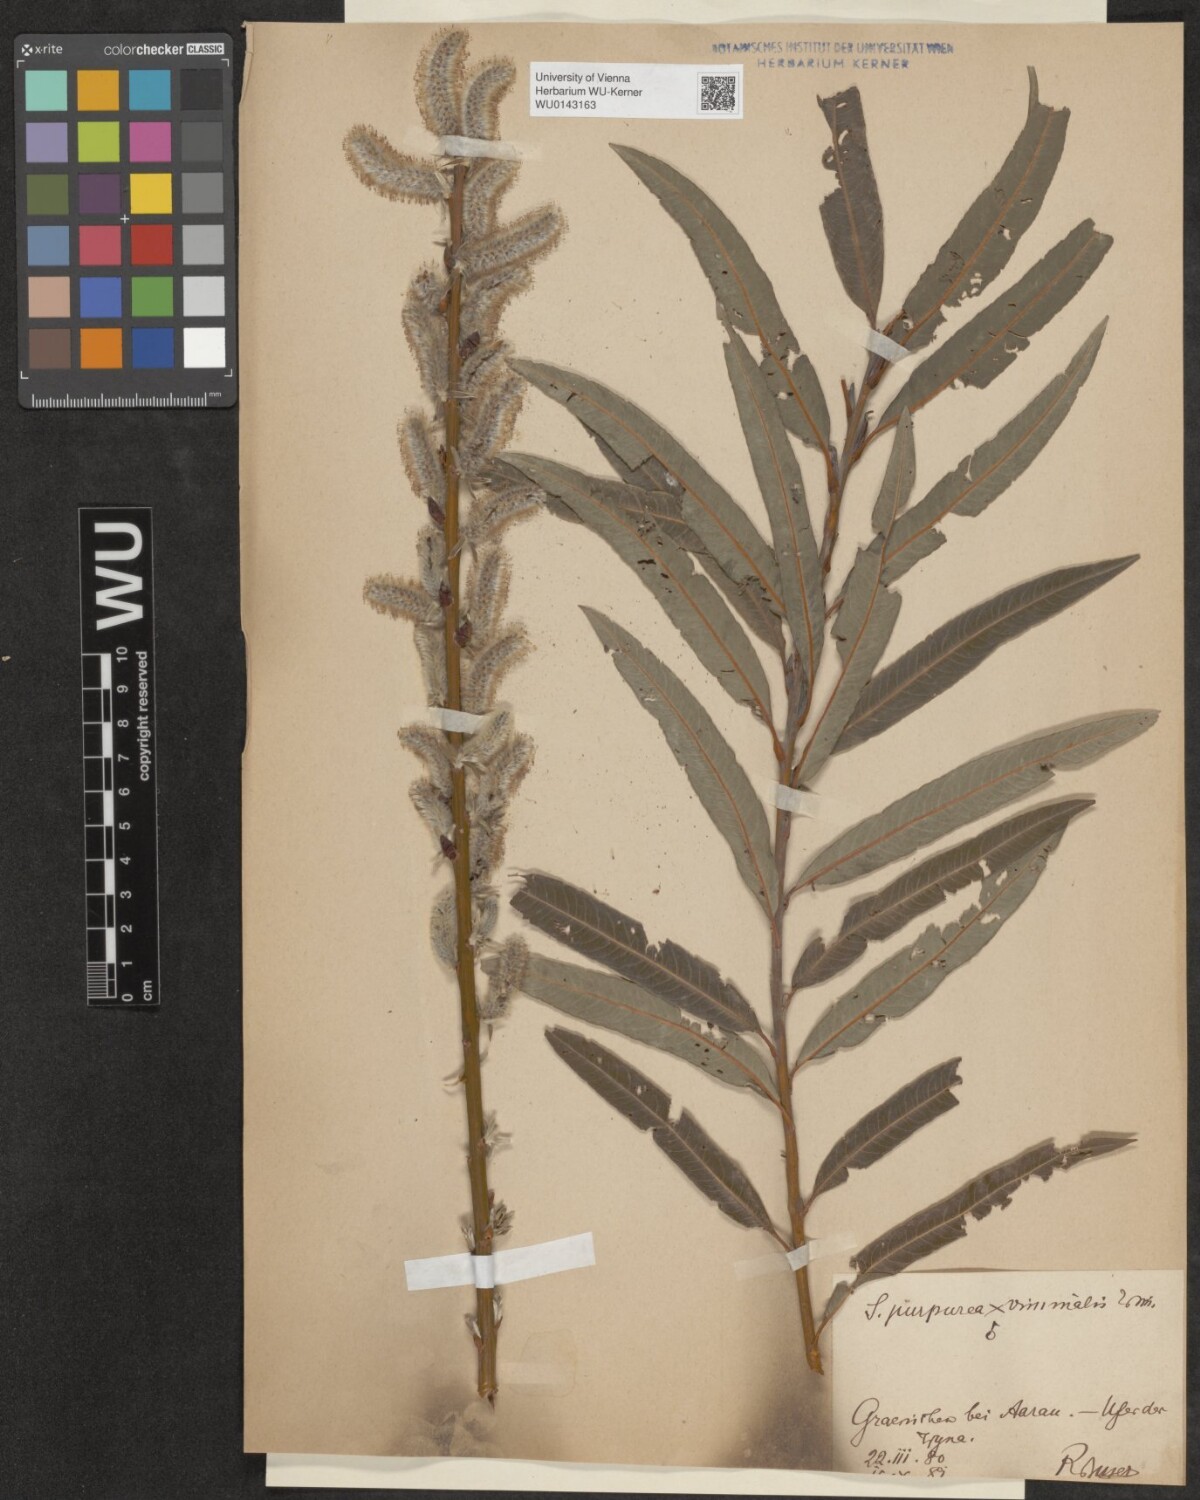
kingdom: Plantae
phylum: Tracheophyta
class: Magnoliopsida
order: Malpighiales
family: Salicaceae
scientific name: Salicaceae
